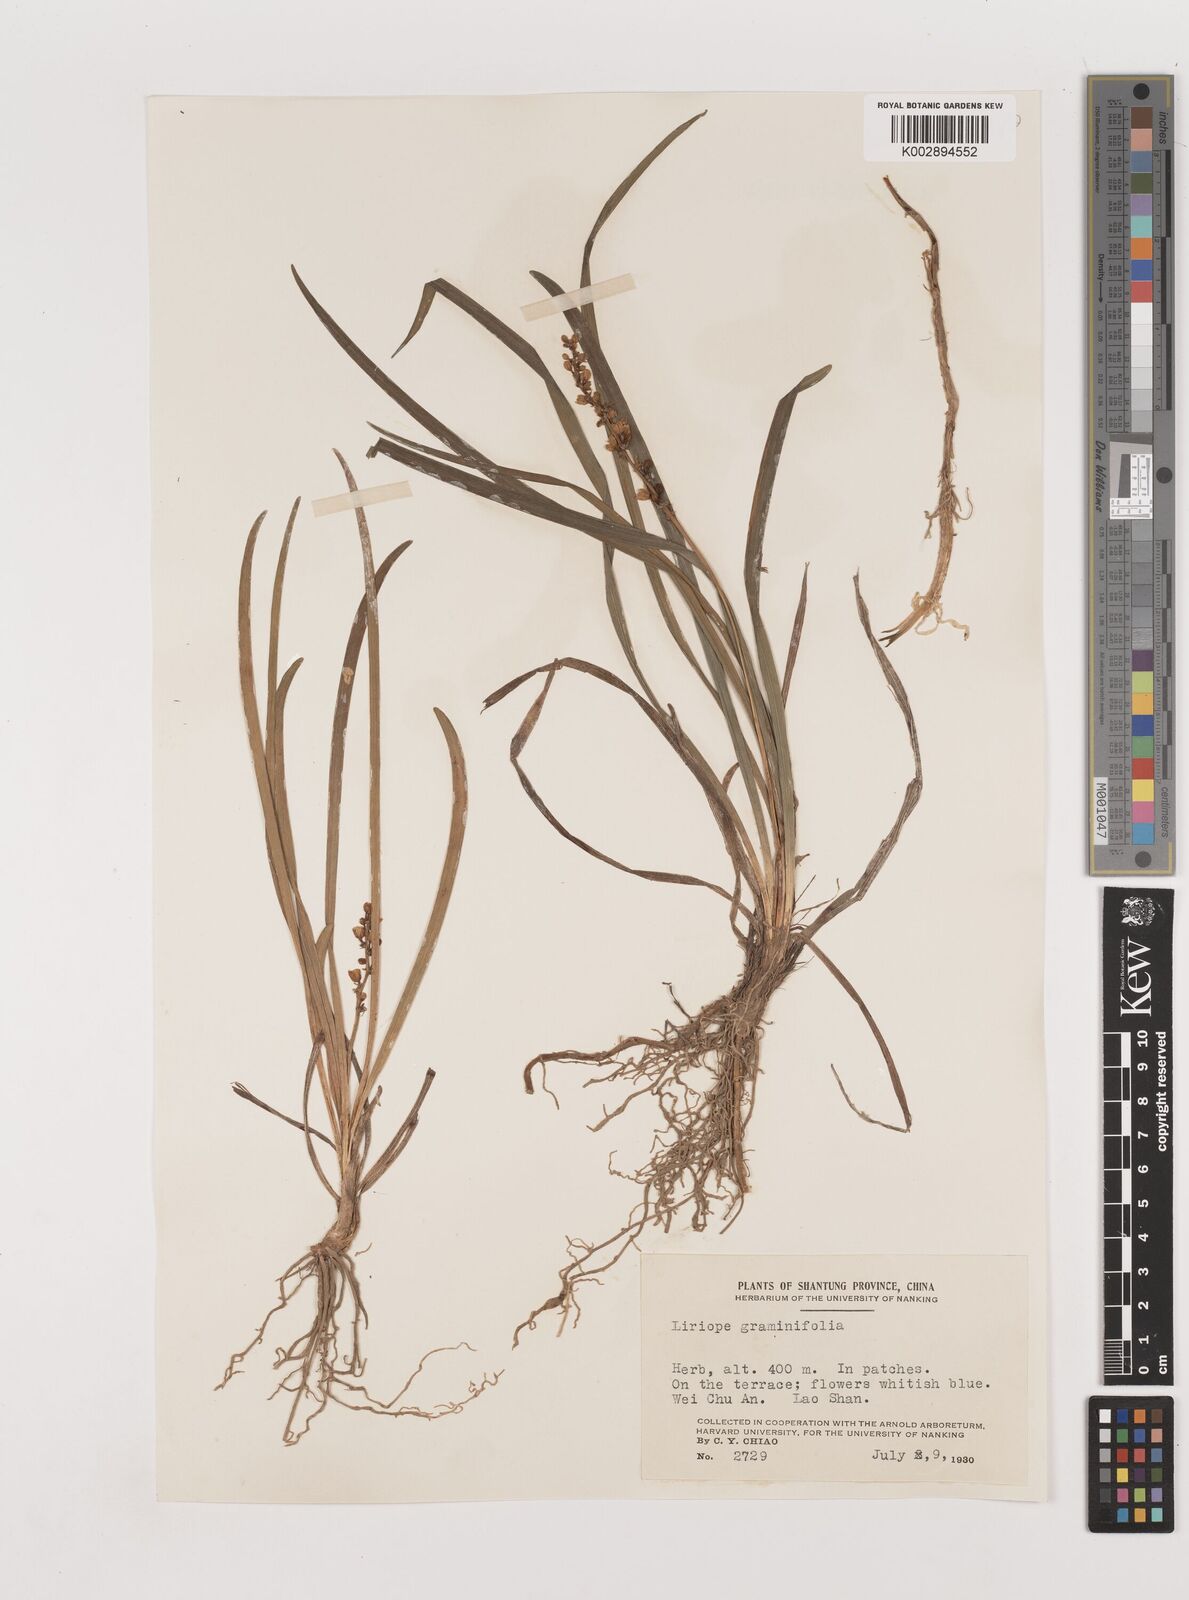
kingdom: Plantae
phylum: Tracheophyta
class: Liliopsida
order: Asparagales
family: Asparagaceae
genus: Liriope
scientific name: Liriope spicata
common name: Creeping liriope
